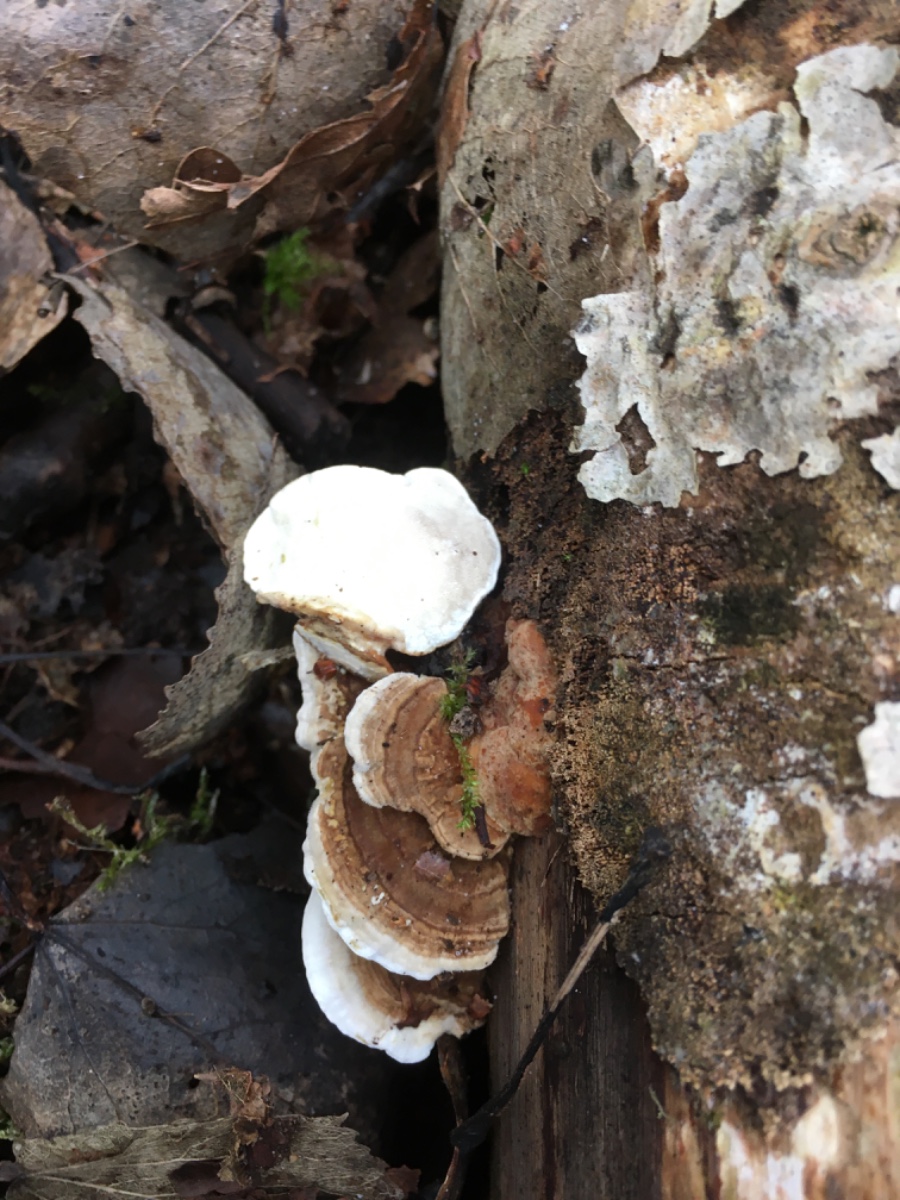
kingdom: Fungi
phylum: Basidiomycota
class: Agaricomycetes
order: Polyporales
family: Polyporaceae
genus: Trametes
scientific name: Trametes versicolor
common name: broget læderporesvamp
